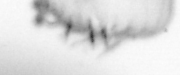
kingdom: Animalia
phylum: Annelida
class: Polychaeta
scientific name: Polychaeta
